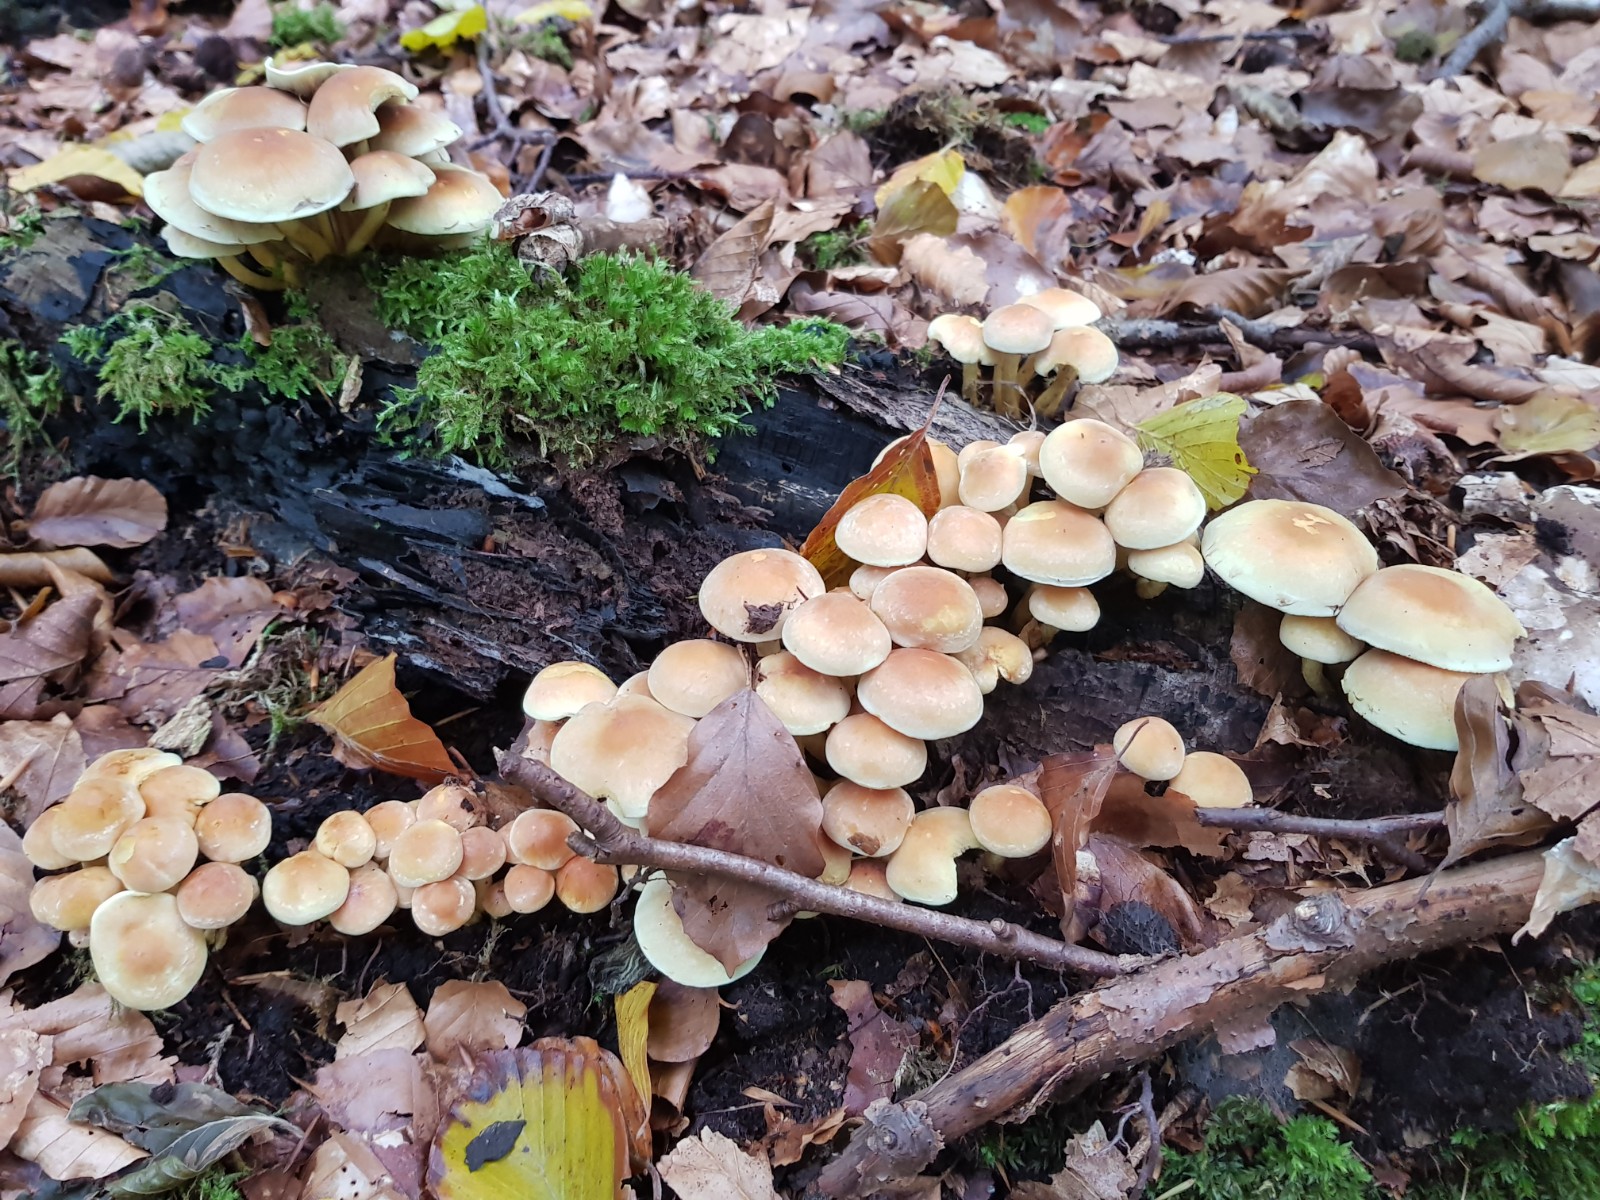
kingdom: Fungi
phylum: Basidiomycota
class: Agaricomycetes
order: Agaricales
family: Strophariaceae
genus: Hypholoma
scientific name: Hypholoma fasciculare
